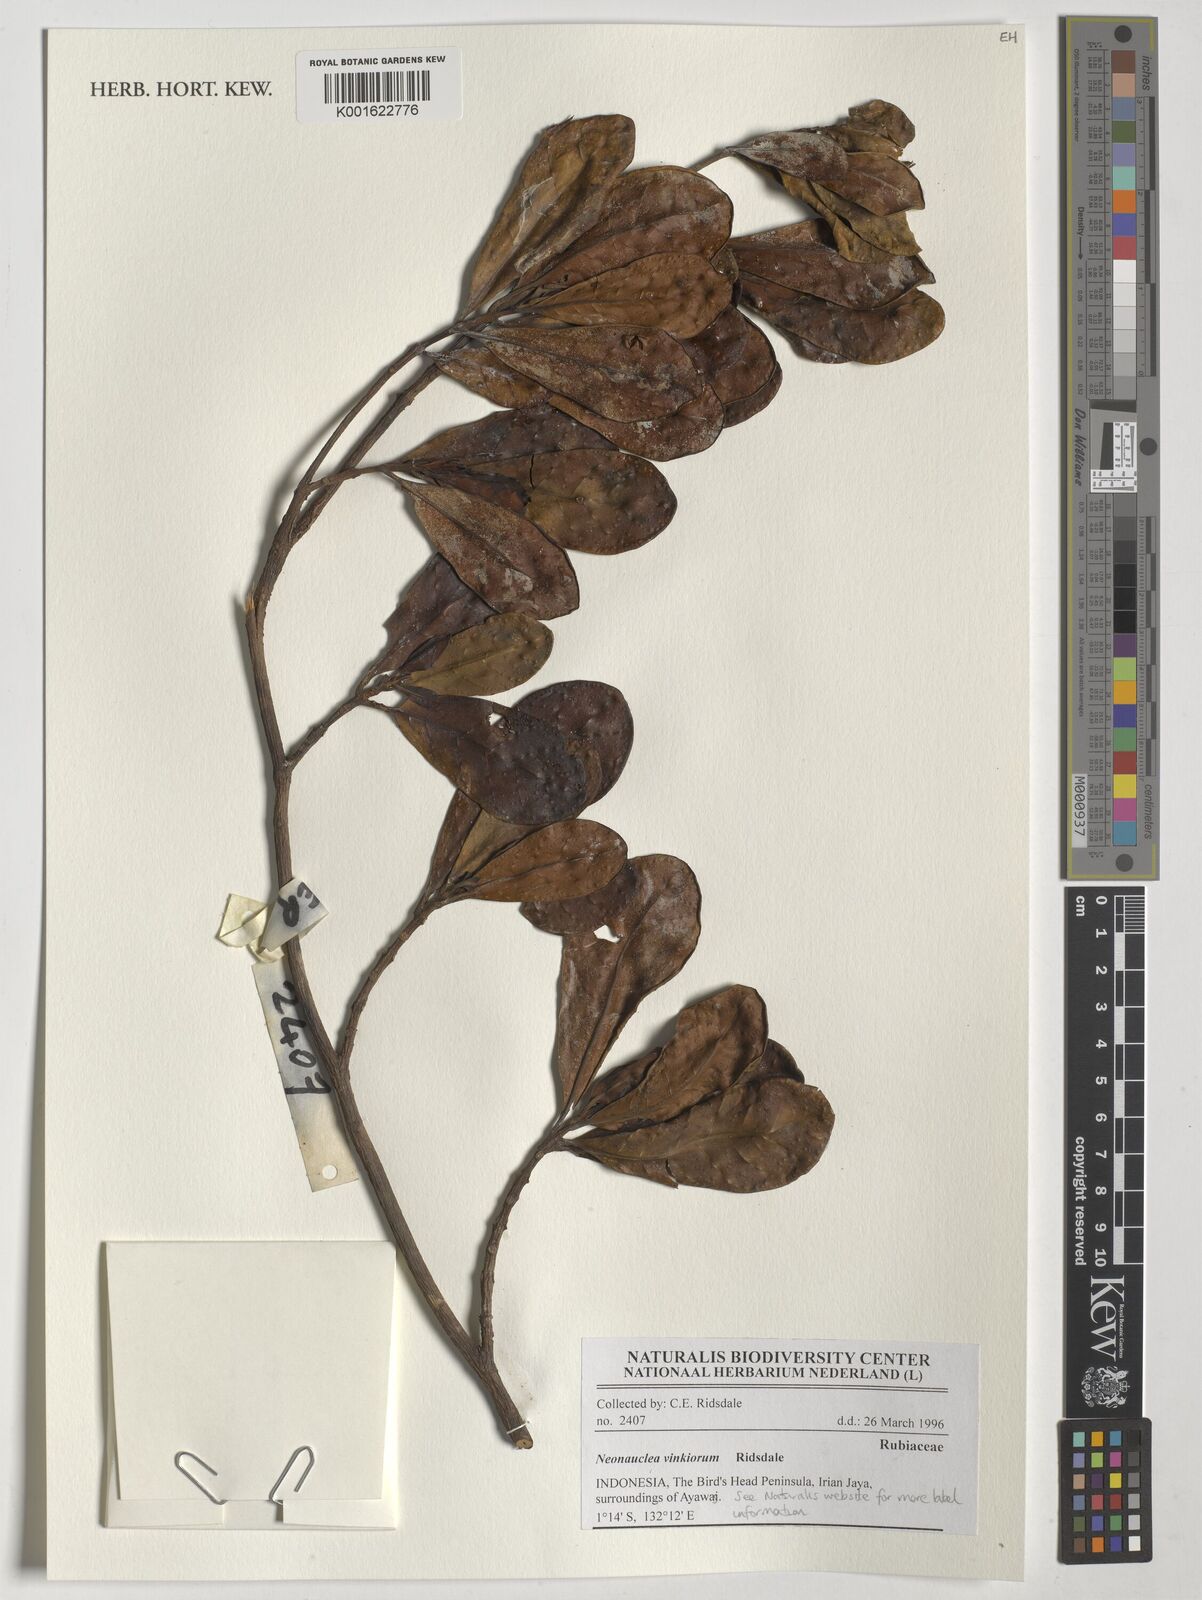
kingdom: Plantae
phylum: Tracheophyta
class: Magnoliopsida
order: Gentianales
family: Rubiaceae
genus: Neonauclea
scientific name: Neonauclea vinkiorum
